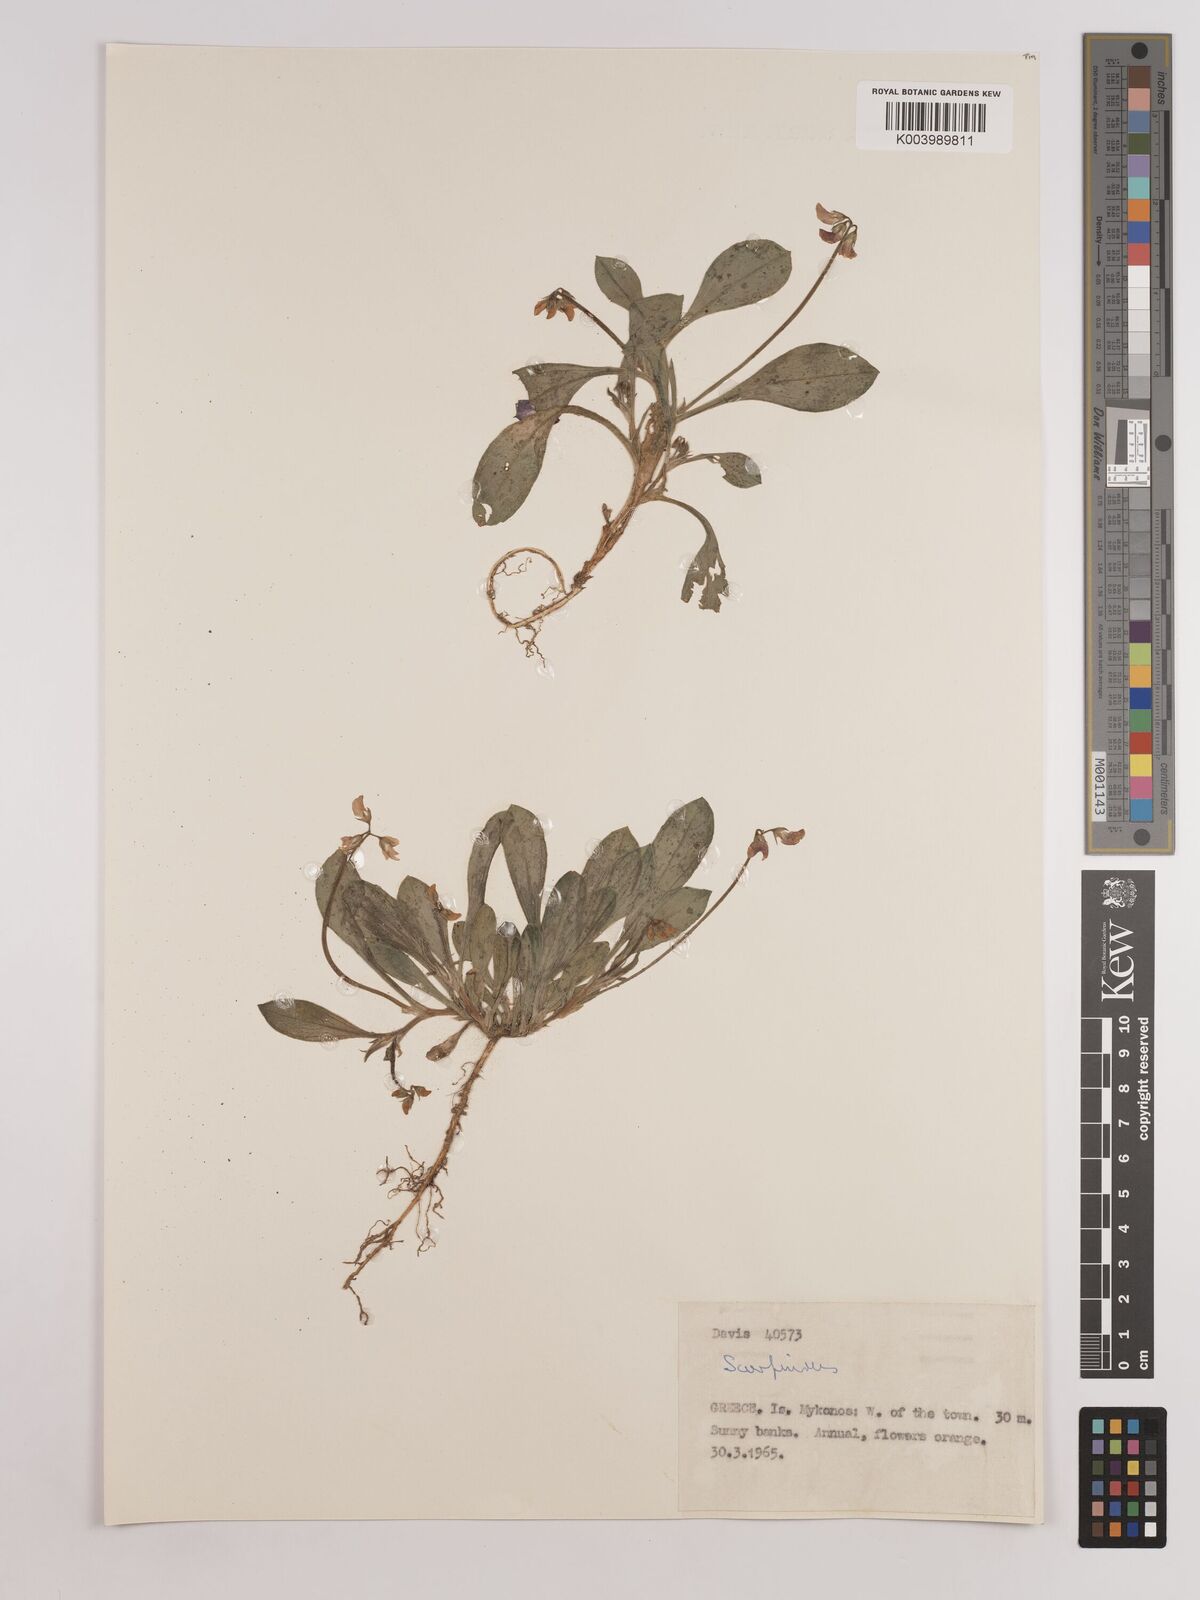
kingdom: Plantae
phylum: Tracheophyta
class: Magnoliopsida
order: Fabales
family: Fabaceae
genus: Scorpiurus
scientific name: Scorpiurus
